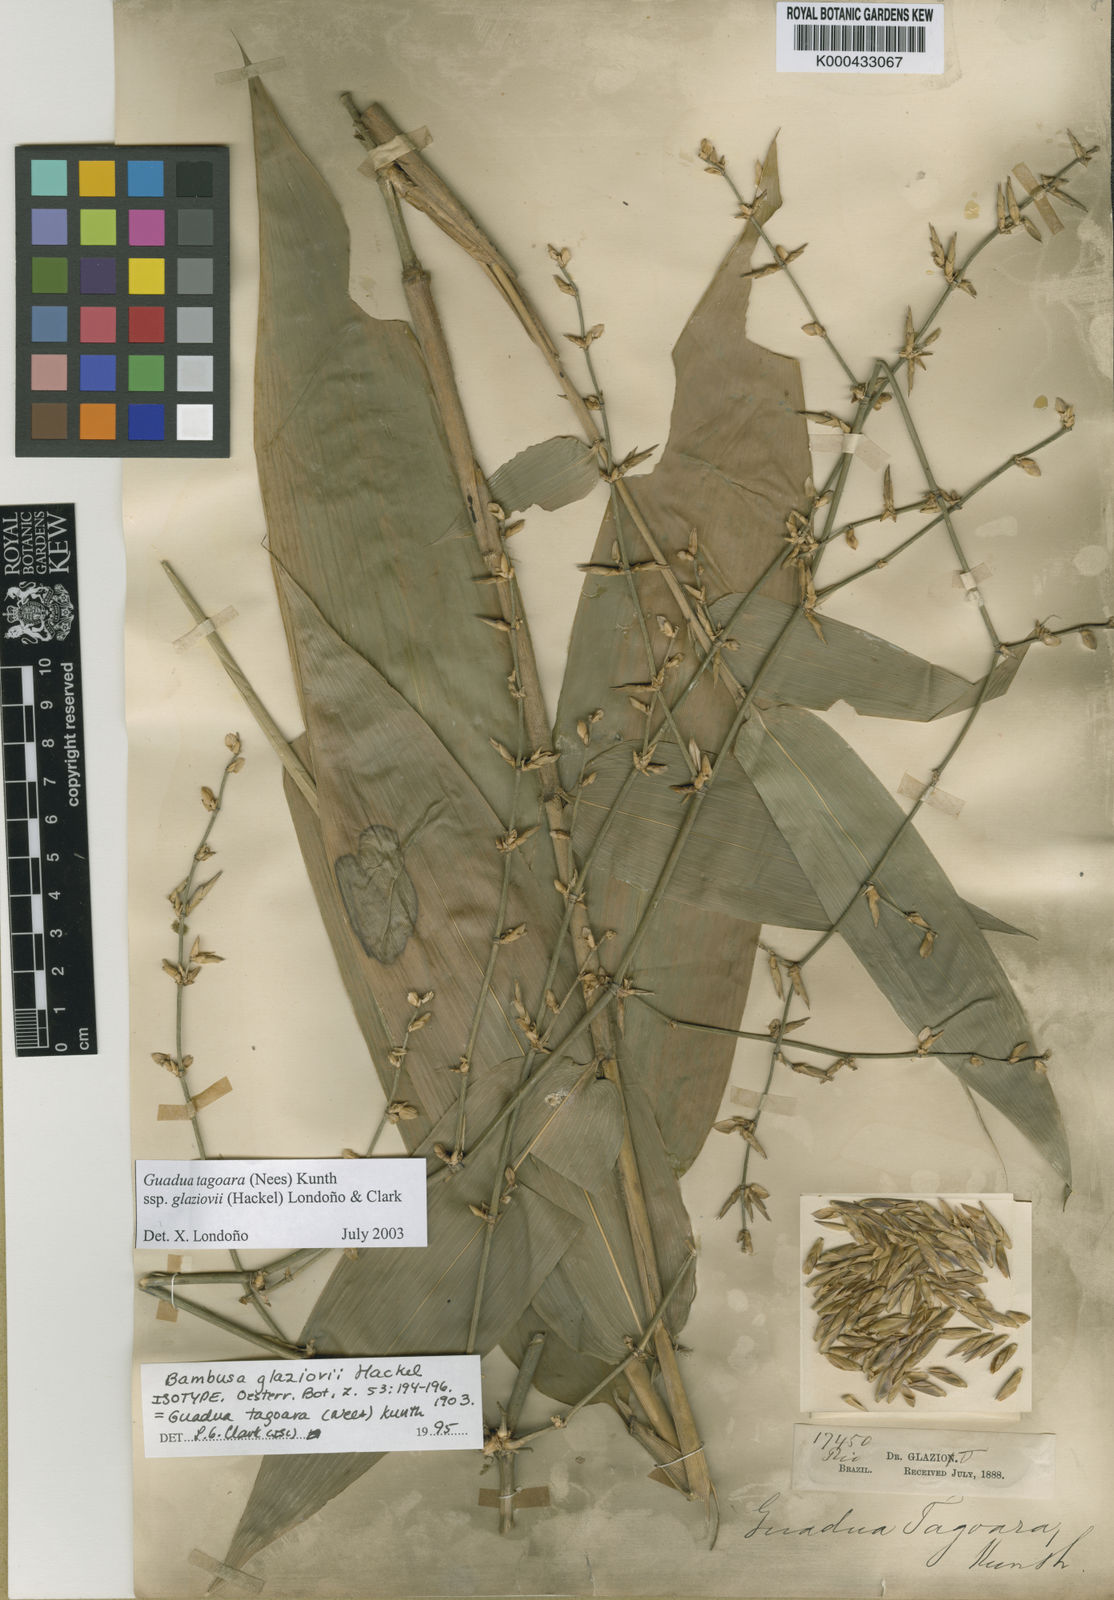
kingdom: Plantae
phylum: Tracheophyta
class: Liliopsida
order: Poales
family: Poaceae
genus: Guadua
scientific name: Guadua tagoara
